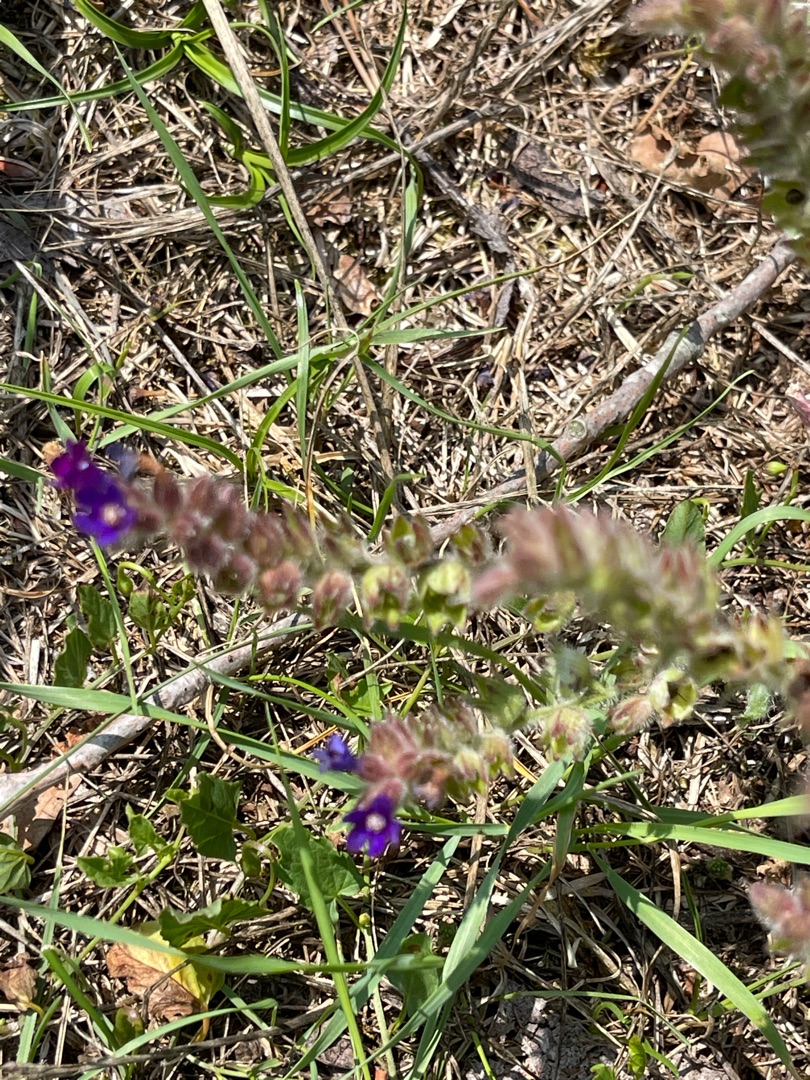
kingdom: Plantae
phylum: Tracheophyta
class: Magnoliopsida
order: Boraginales
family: Boraginaceae
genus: Anchusa
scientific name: Anchusa officinalis
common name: Læge-oksetunge
